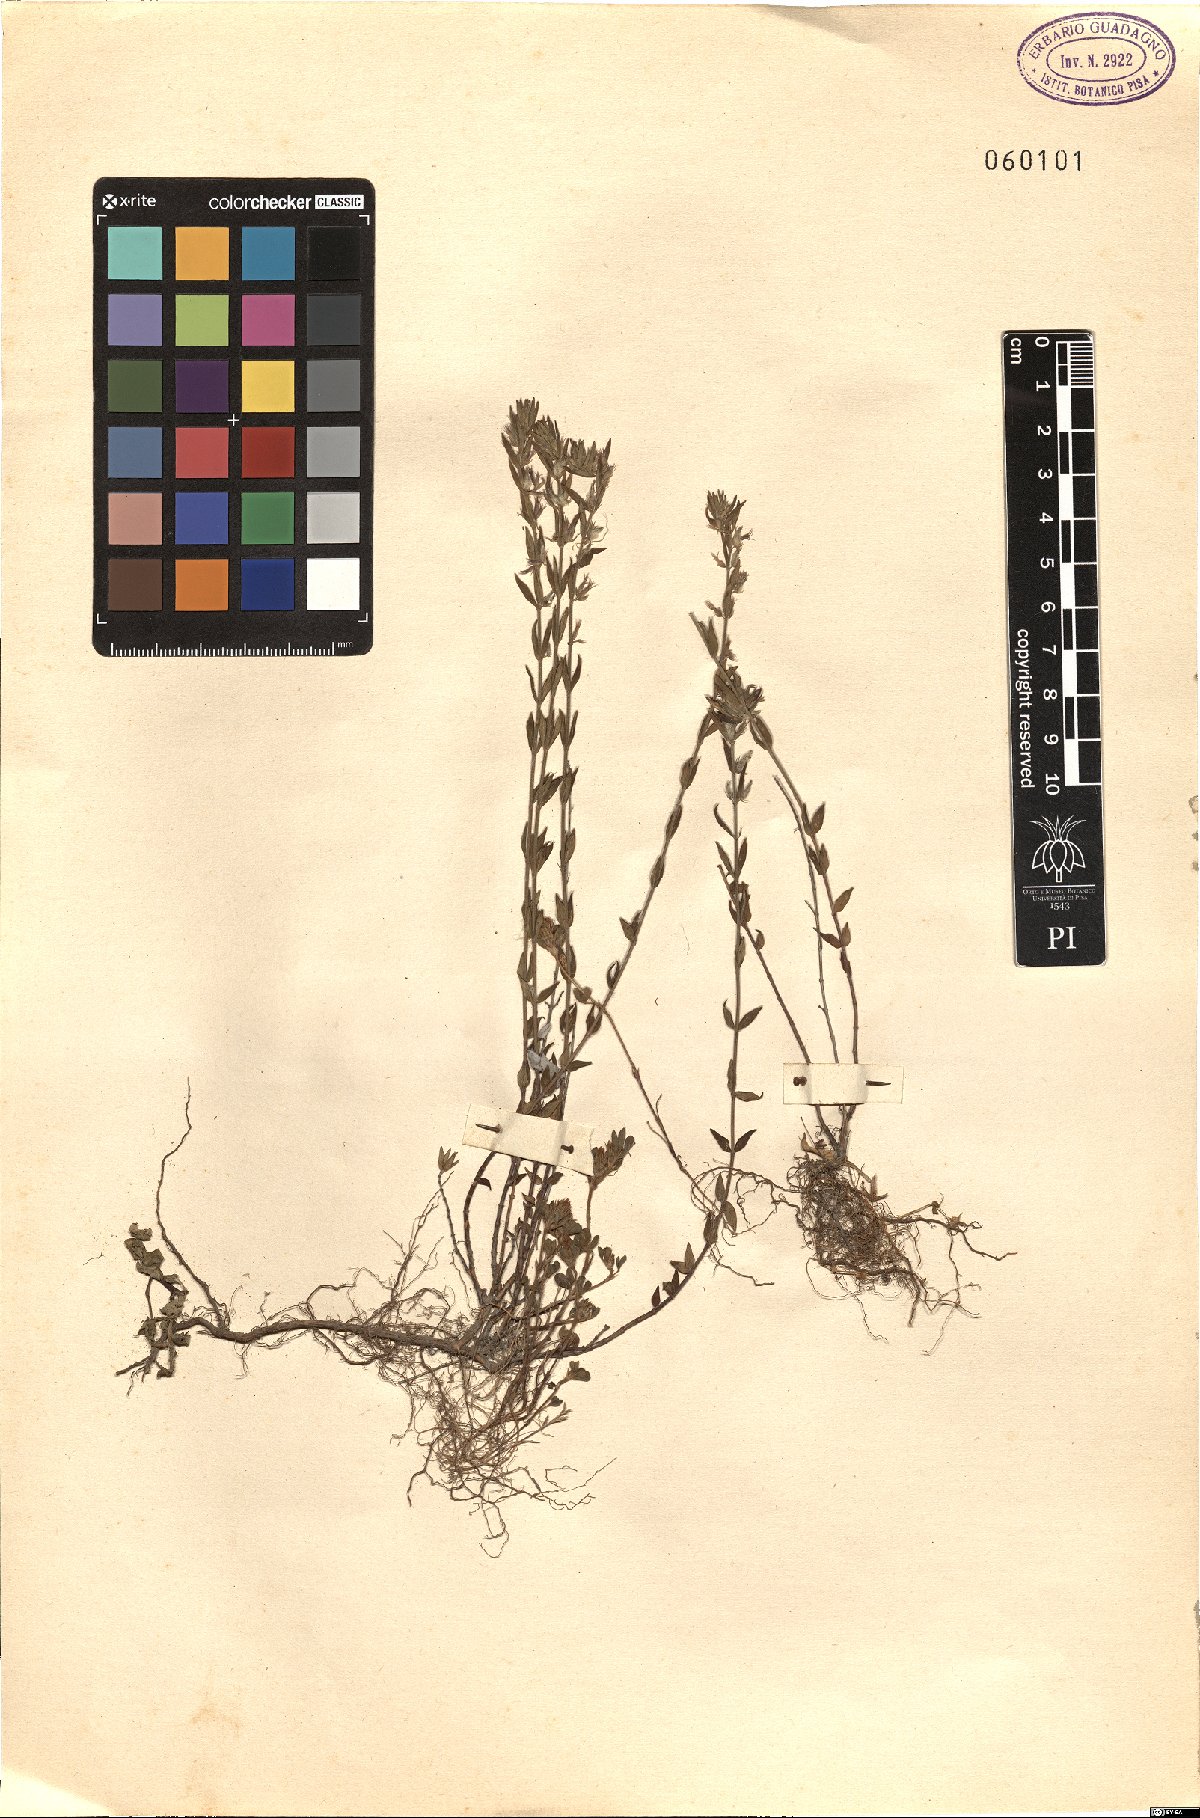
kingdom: Plantae
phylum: Tracheophyta
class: Magnoliopsida
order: Lamiales
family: Lamiaceae
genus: Micromeria
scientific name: Micromeria
